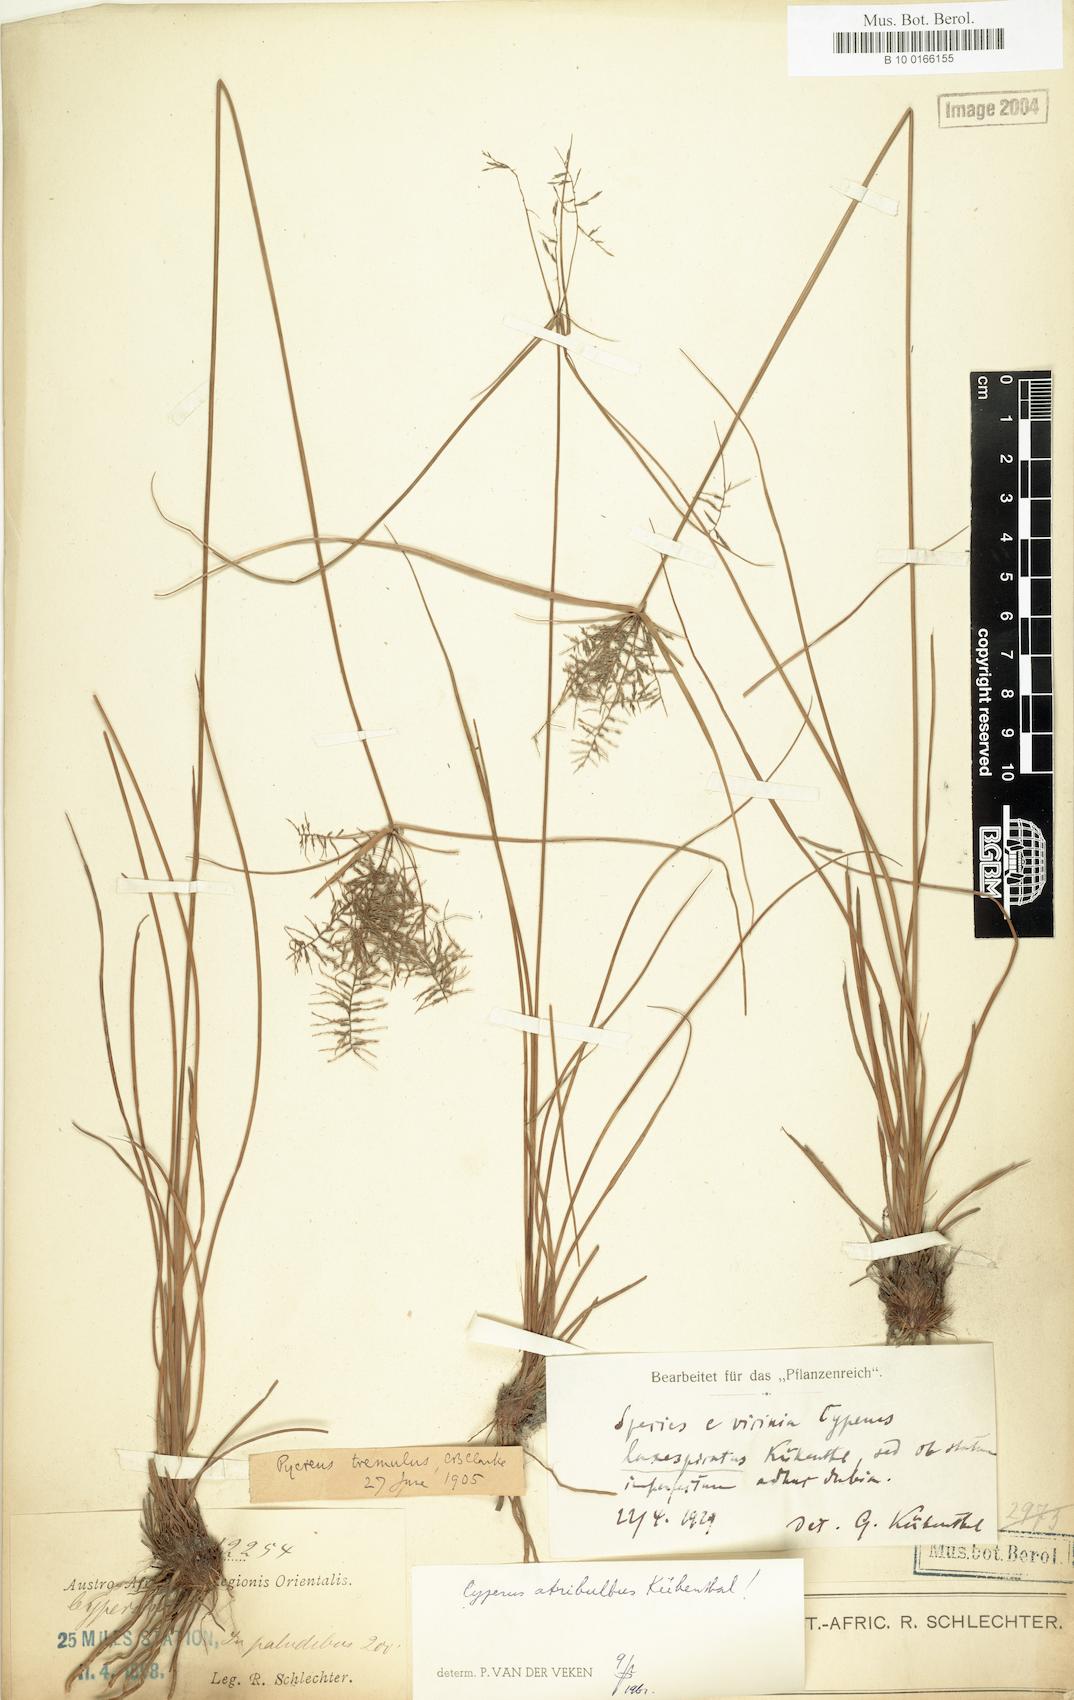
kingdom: Plantae
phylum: Tracheophyta
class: Liliopsida
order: Poales
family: Cyperaceae
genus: Cyperus
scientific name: Cyperus intactus
